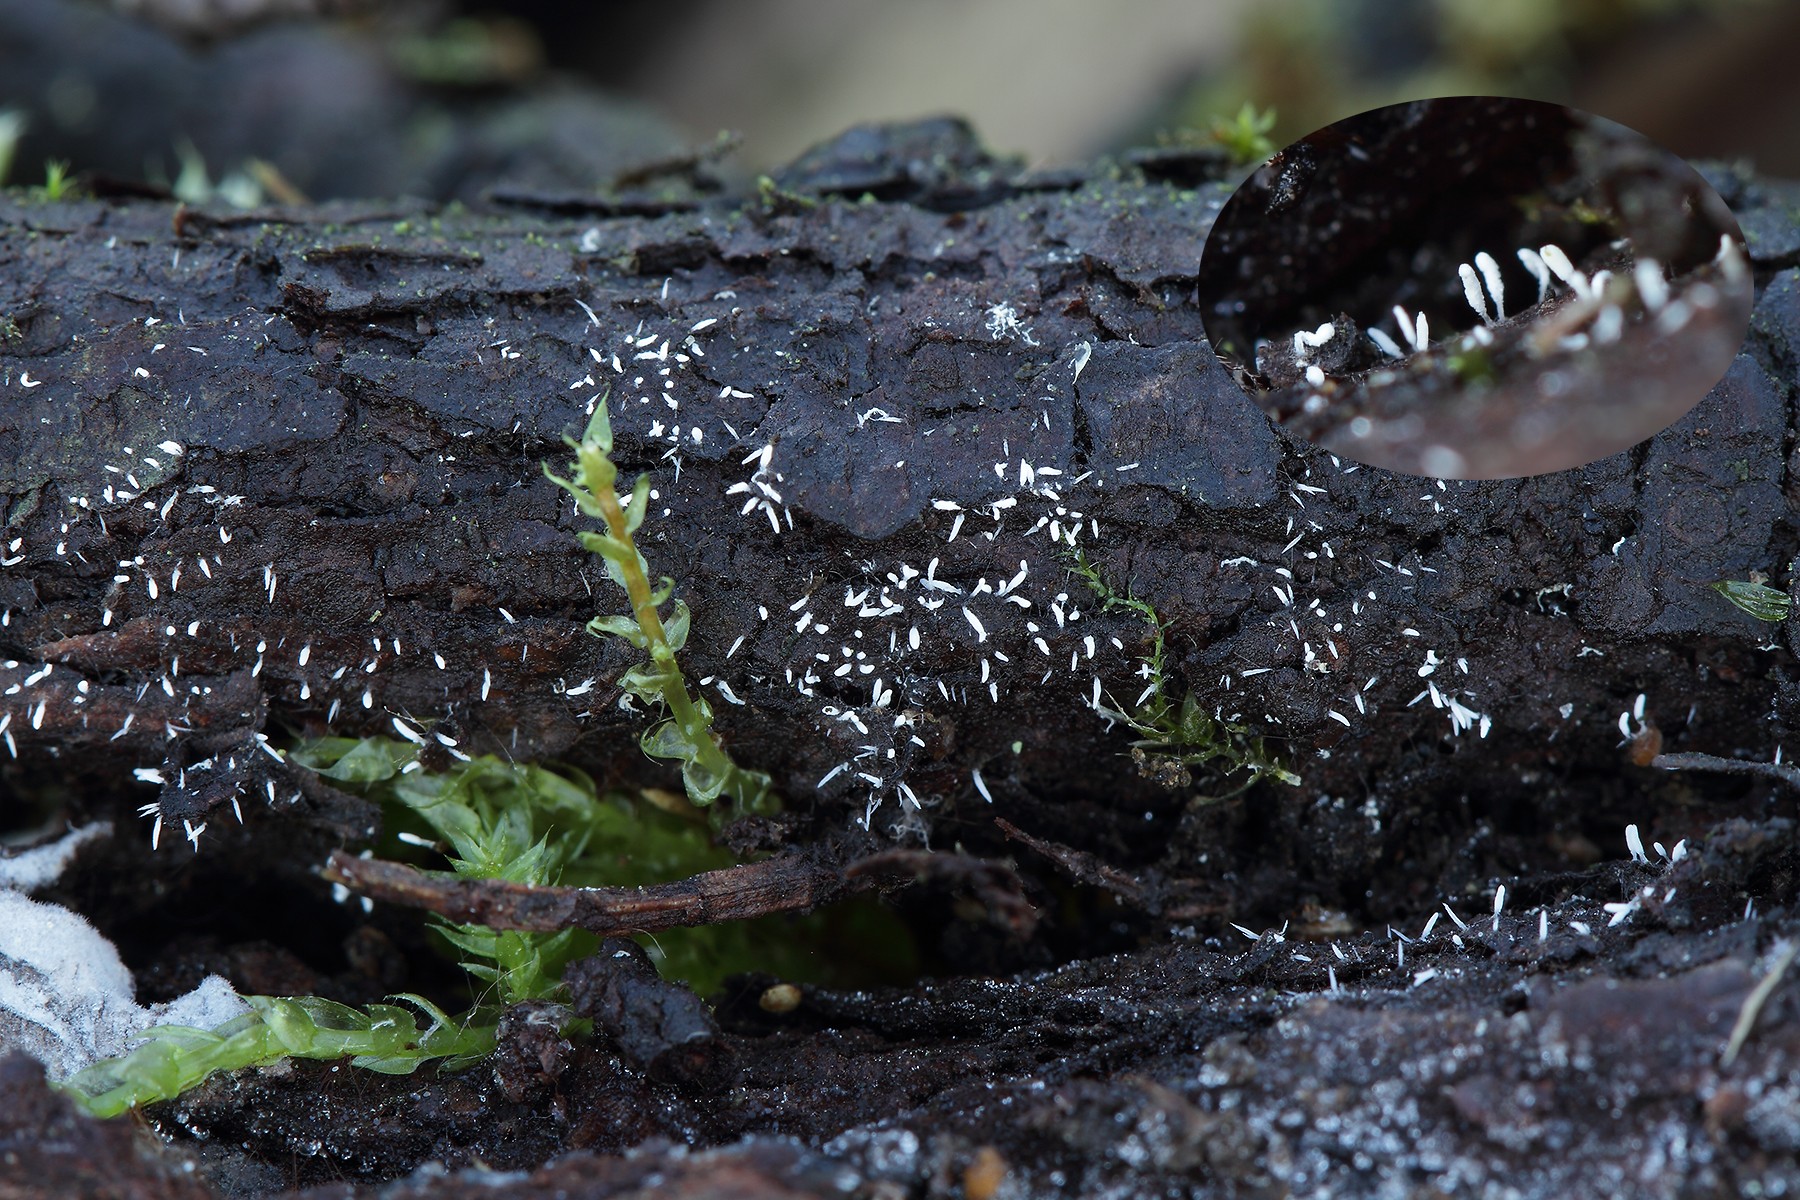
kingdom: Fungi
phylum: Basidiomycota
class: Agaricomycetes
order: Hymenochaetales
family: Rickenellaceae
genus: Bryopistillaria
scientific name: Bryopistillaria sagittiformis
